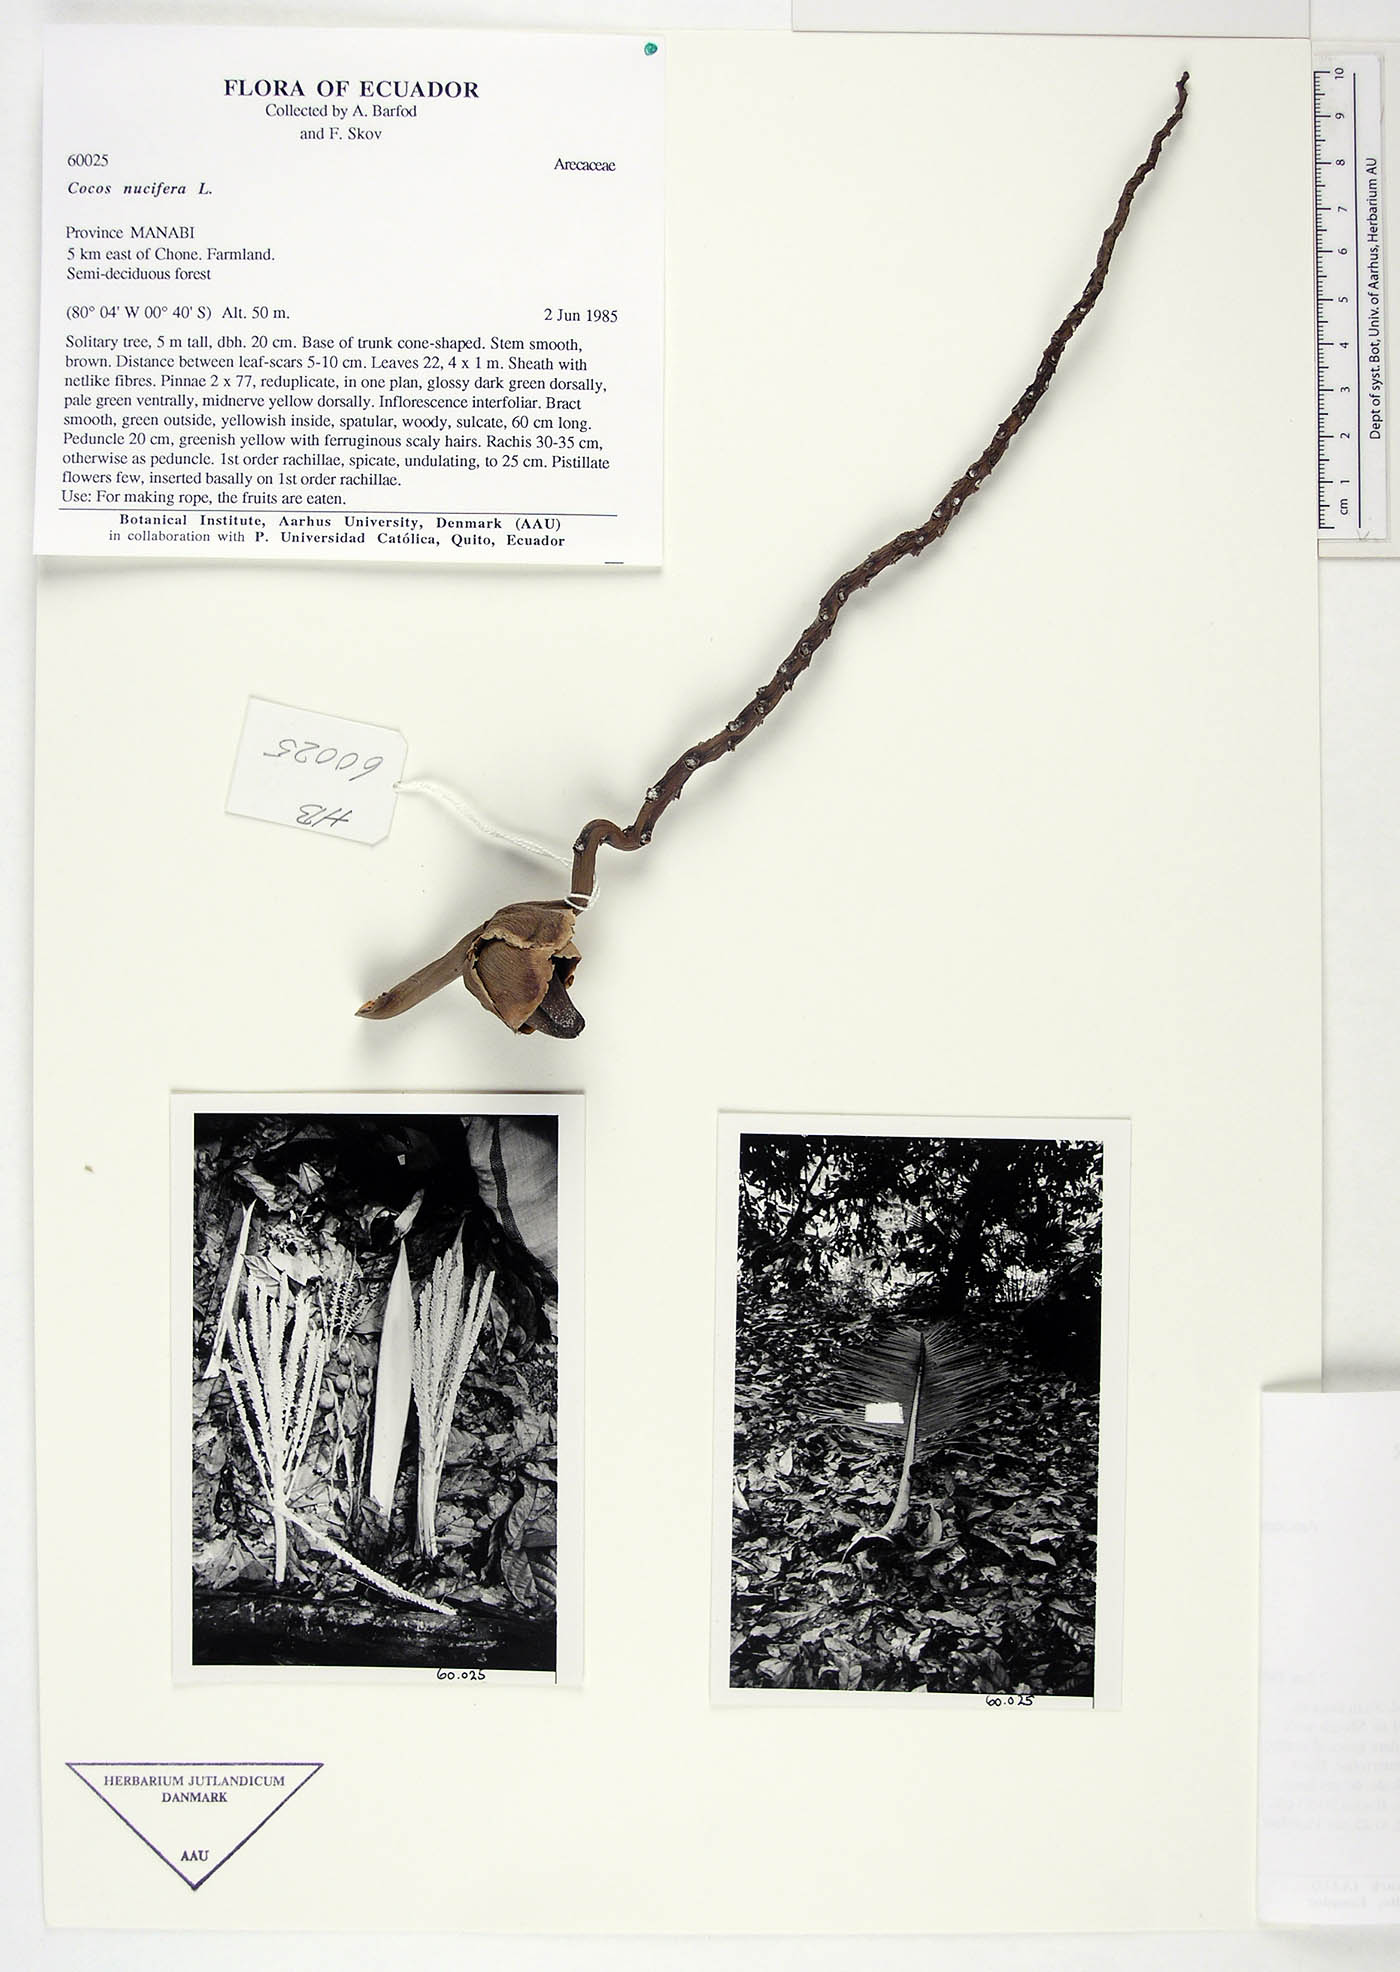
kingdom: Plantae
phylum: Tracheophyta
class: Liliopsida
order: Arecales
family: Arecaceae
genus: Cocos
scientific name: Cocos nucifera
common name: Coconut palm
